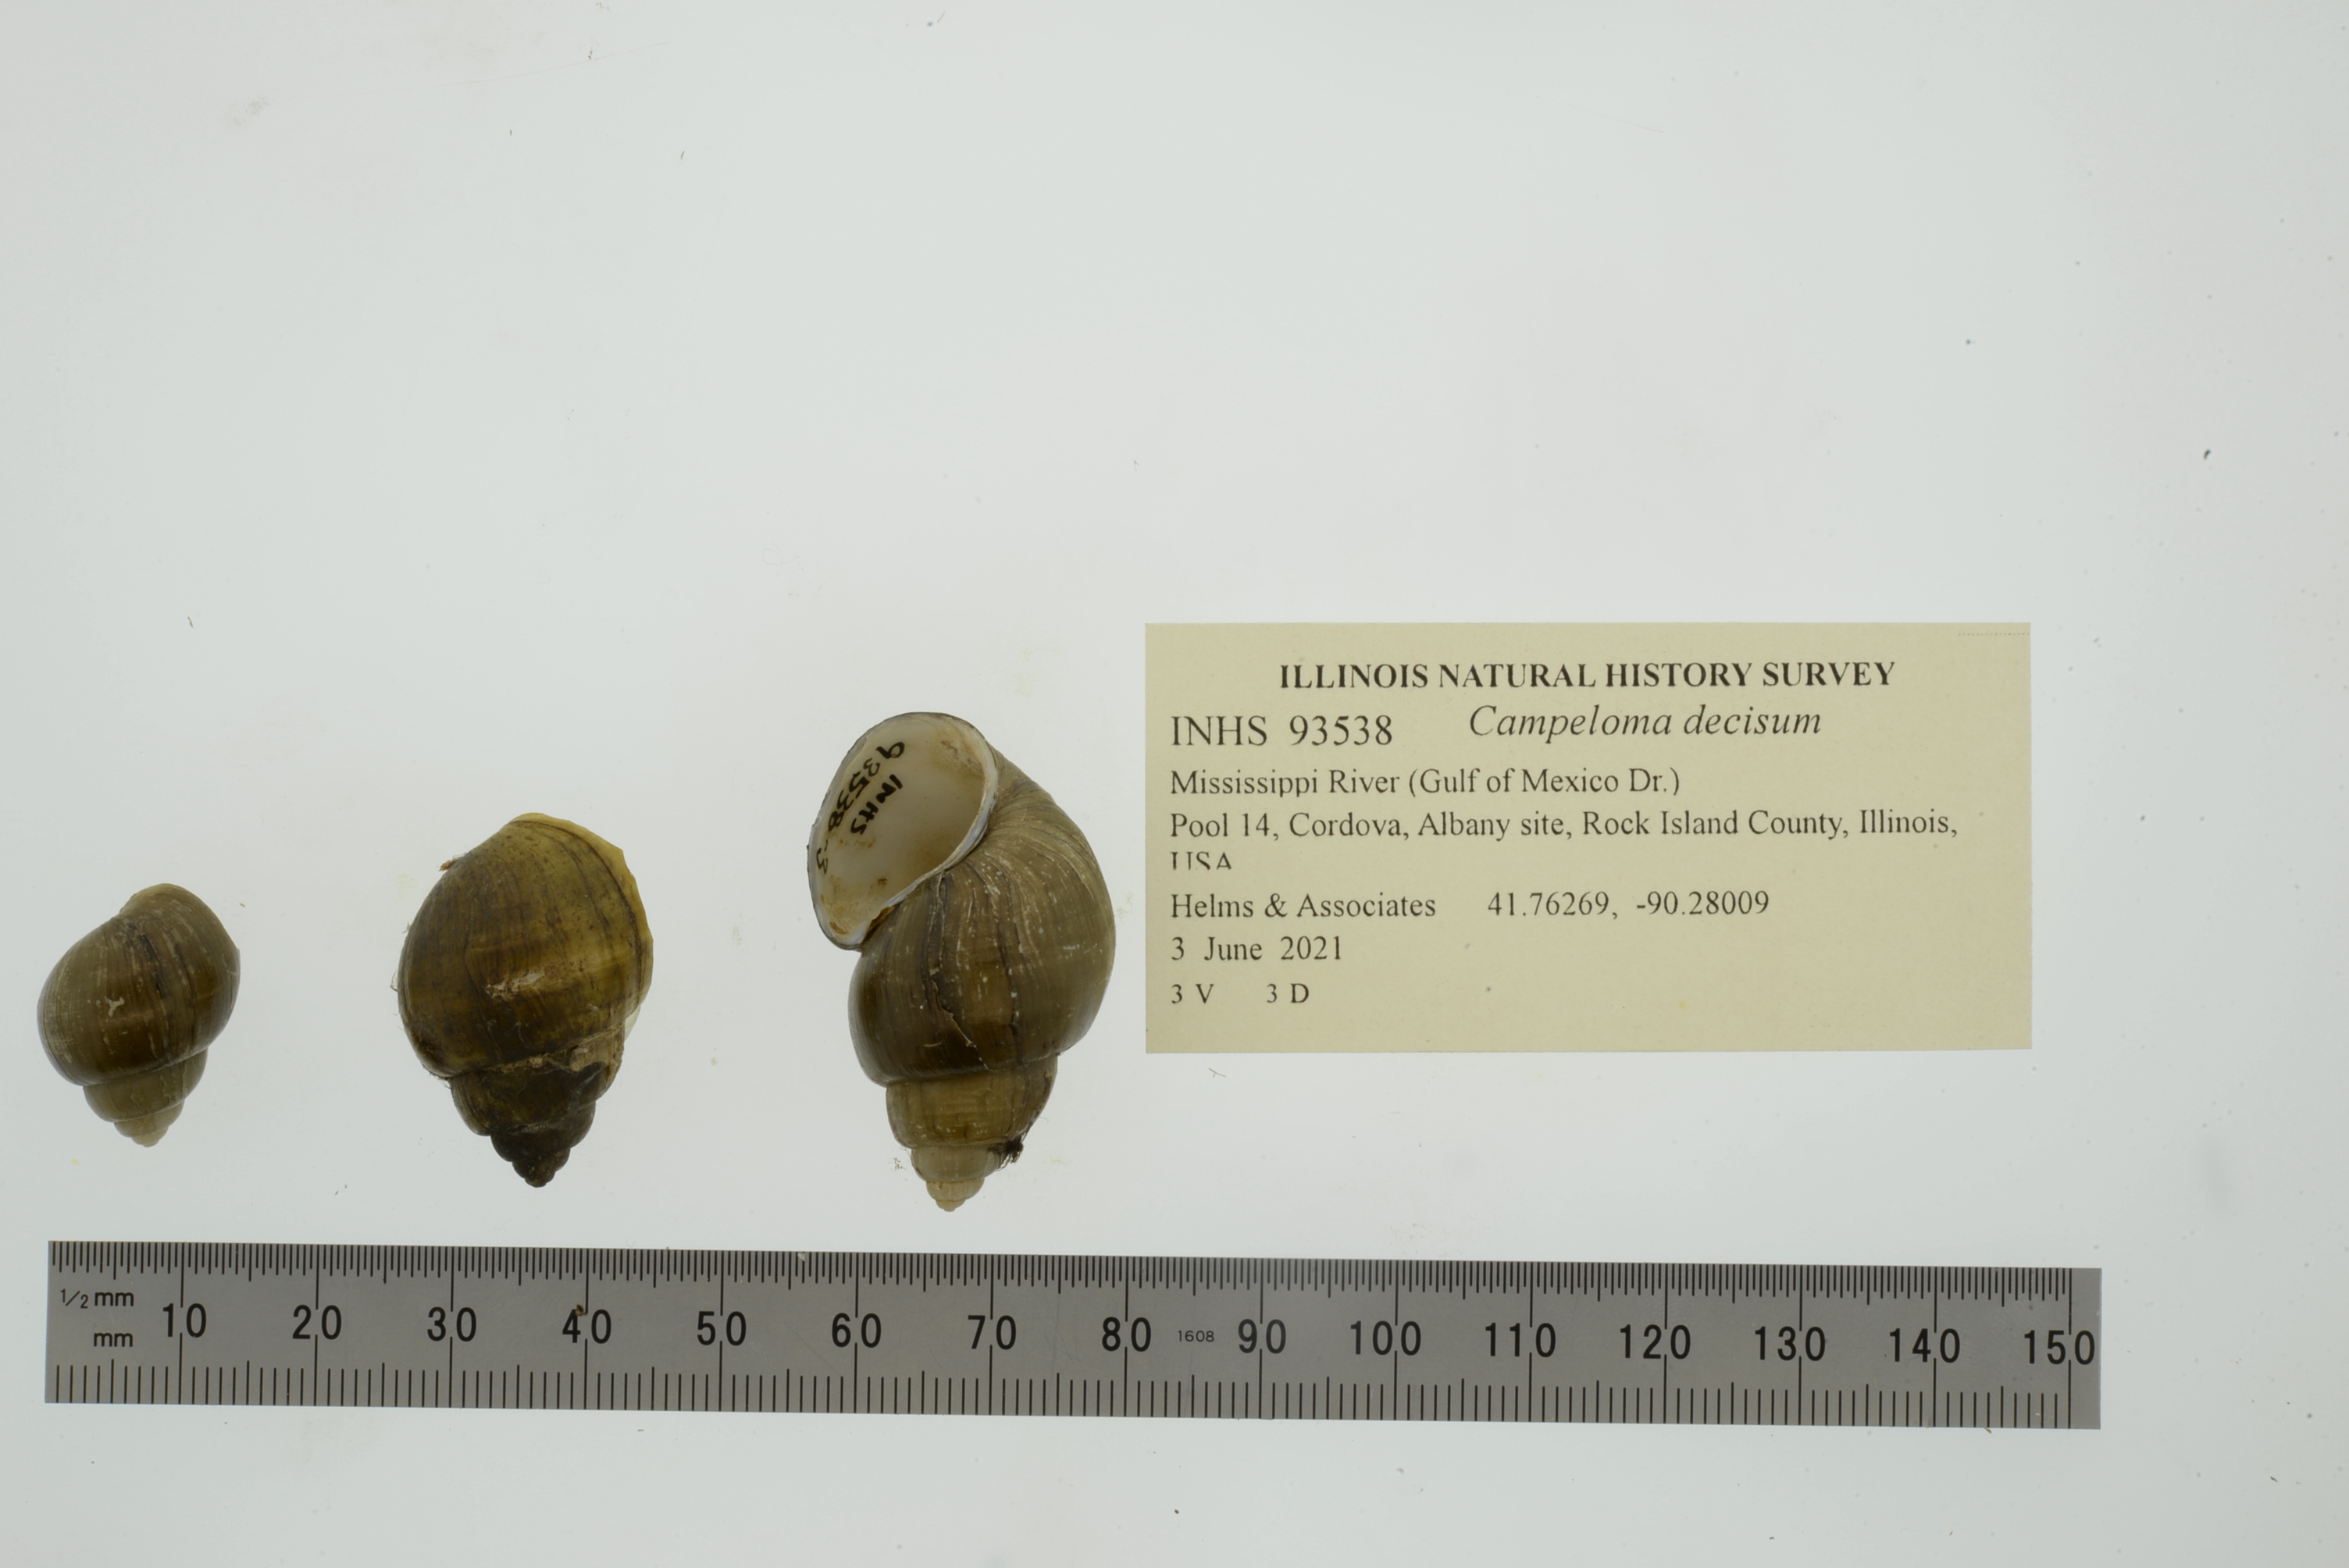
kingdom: Animalia
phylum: Mollusca
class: Gastropoda
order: Architaenioglossa
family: Viviparidae
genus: Campeloma
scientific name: Campeloma decisum
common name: Pointed campeloma
